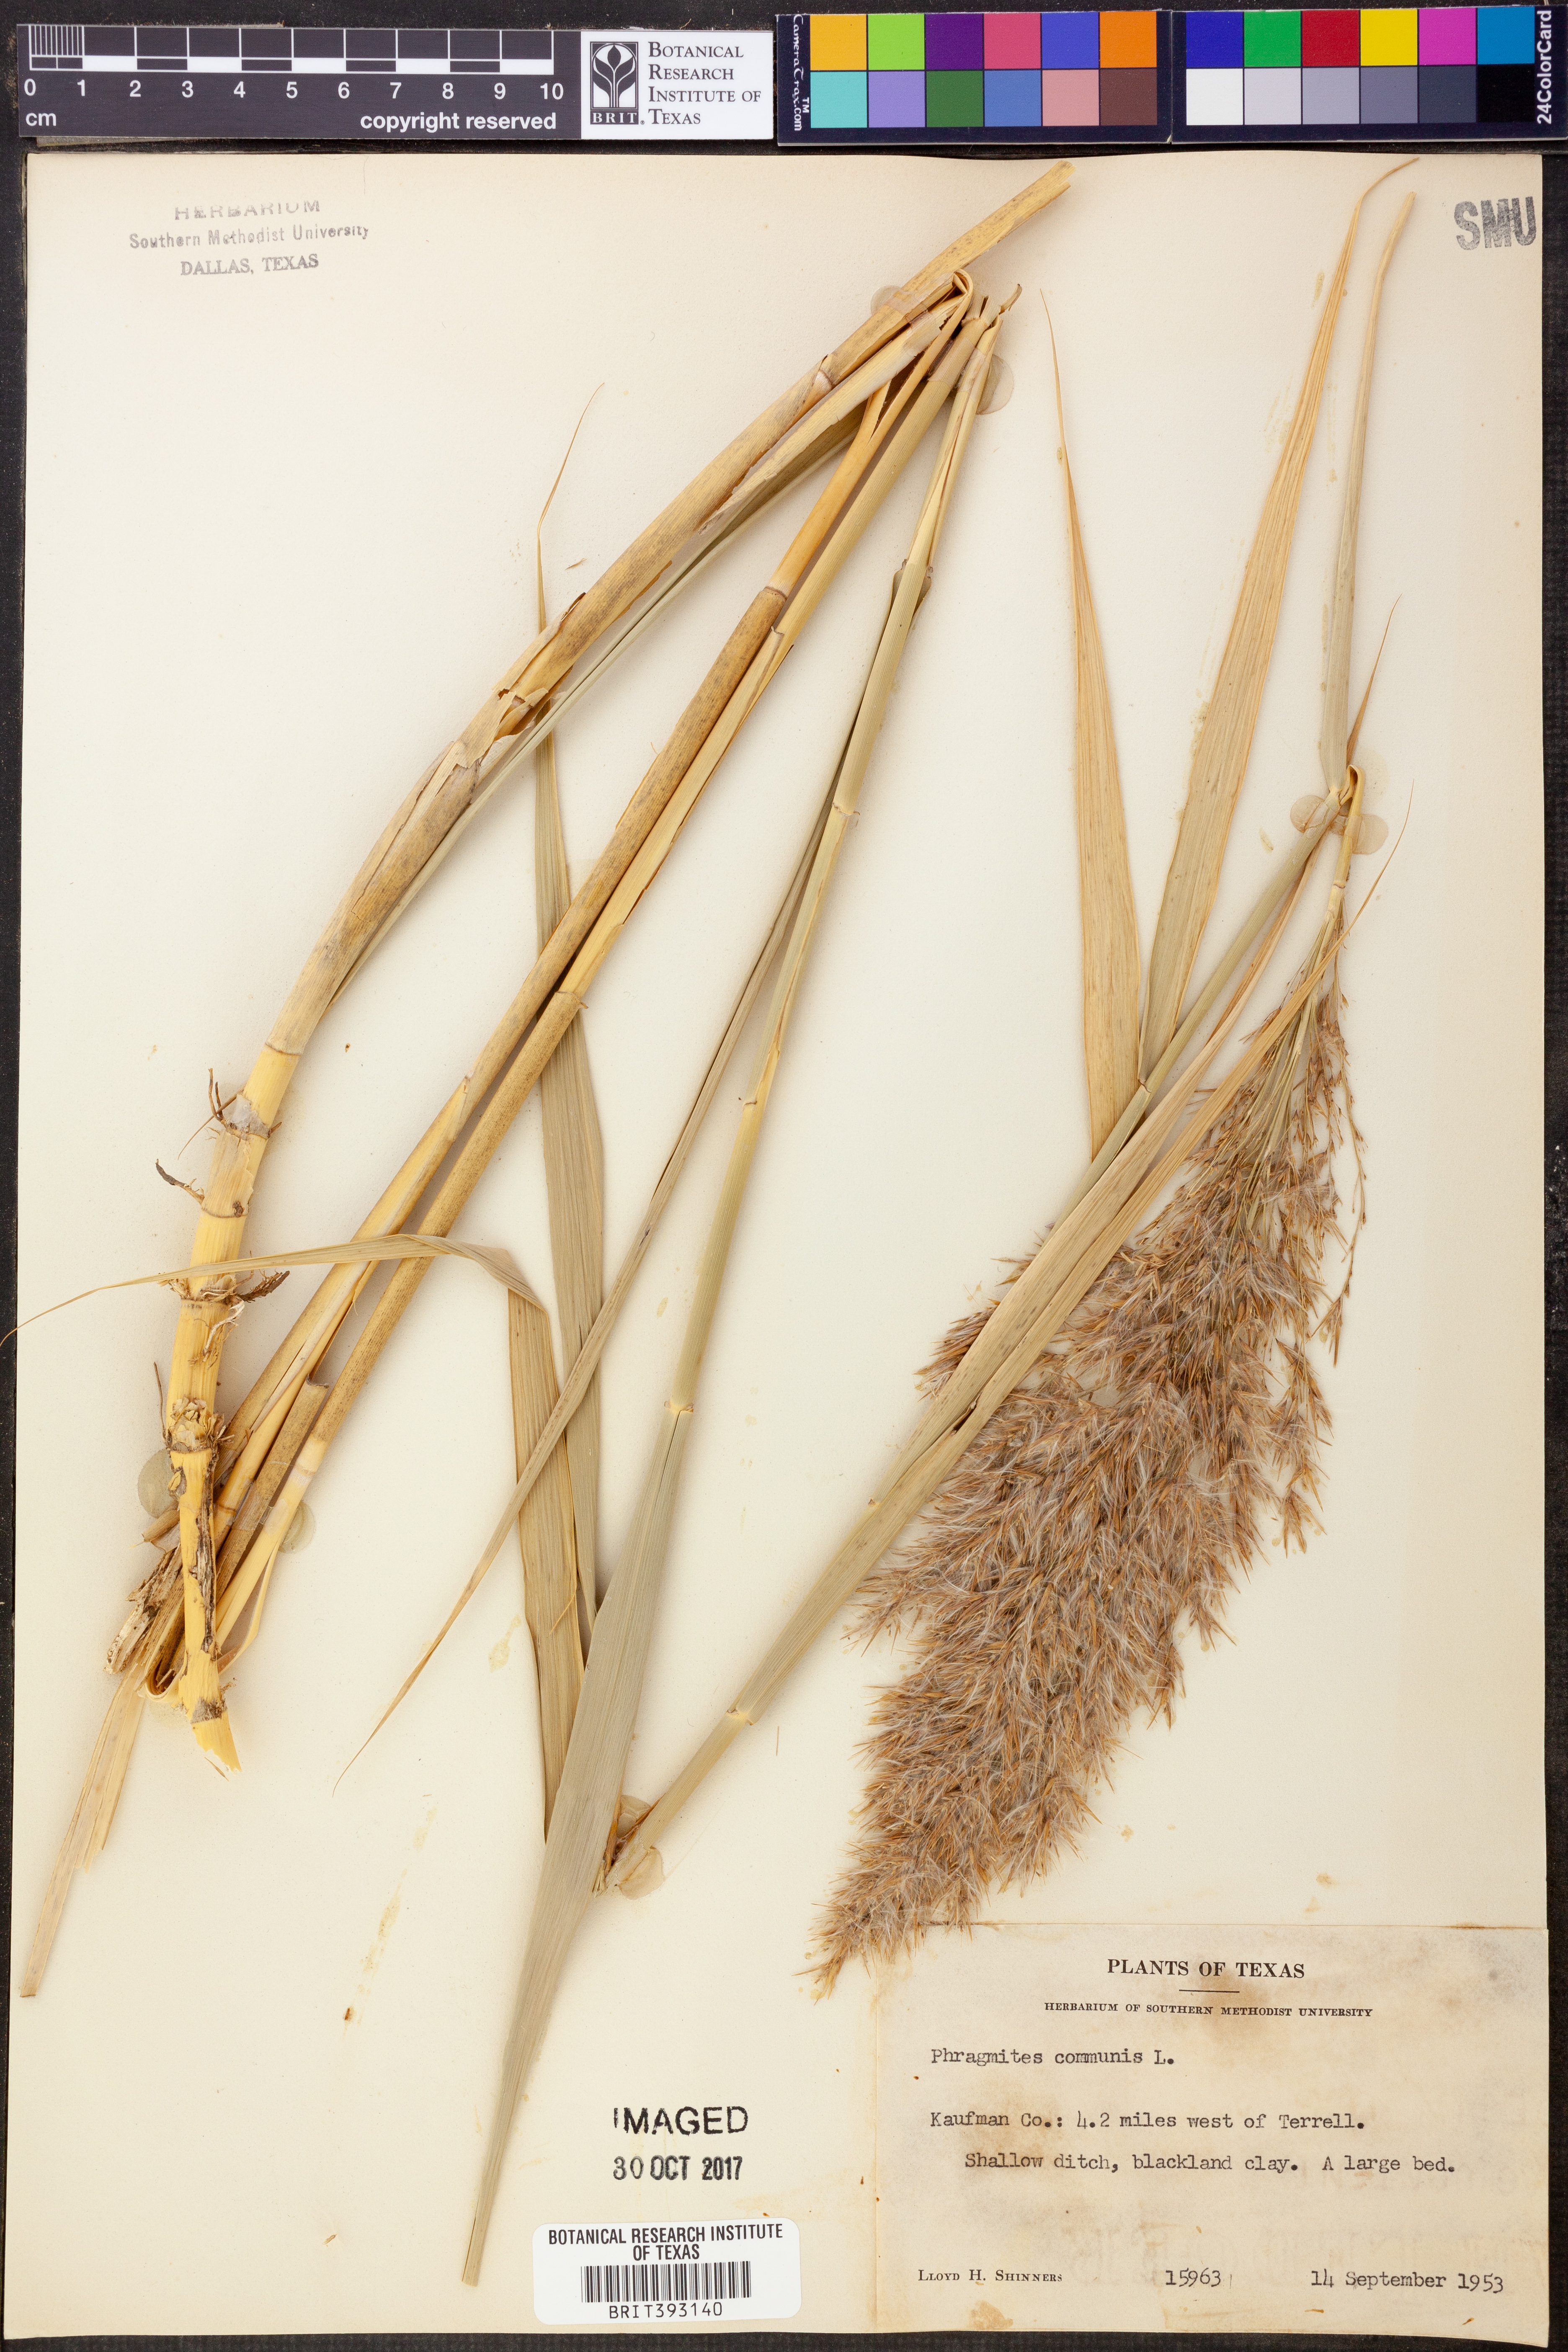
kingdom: Plantae
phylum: Tracheophyta
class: Liliopsida
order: Poales
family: Poaceae
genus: Phragmites
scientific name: Phragmites australis
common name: Common reed
